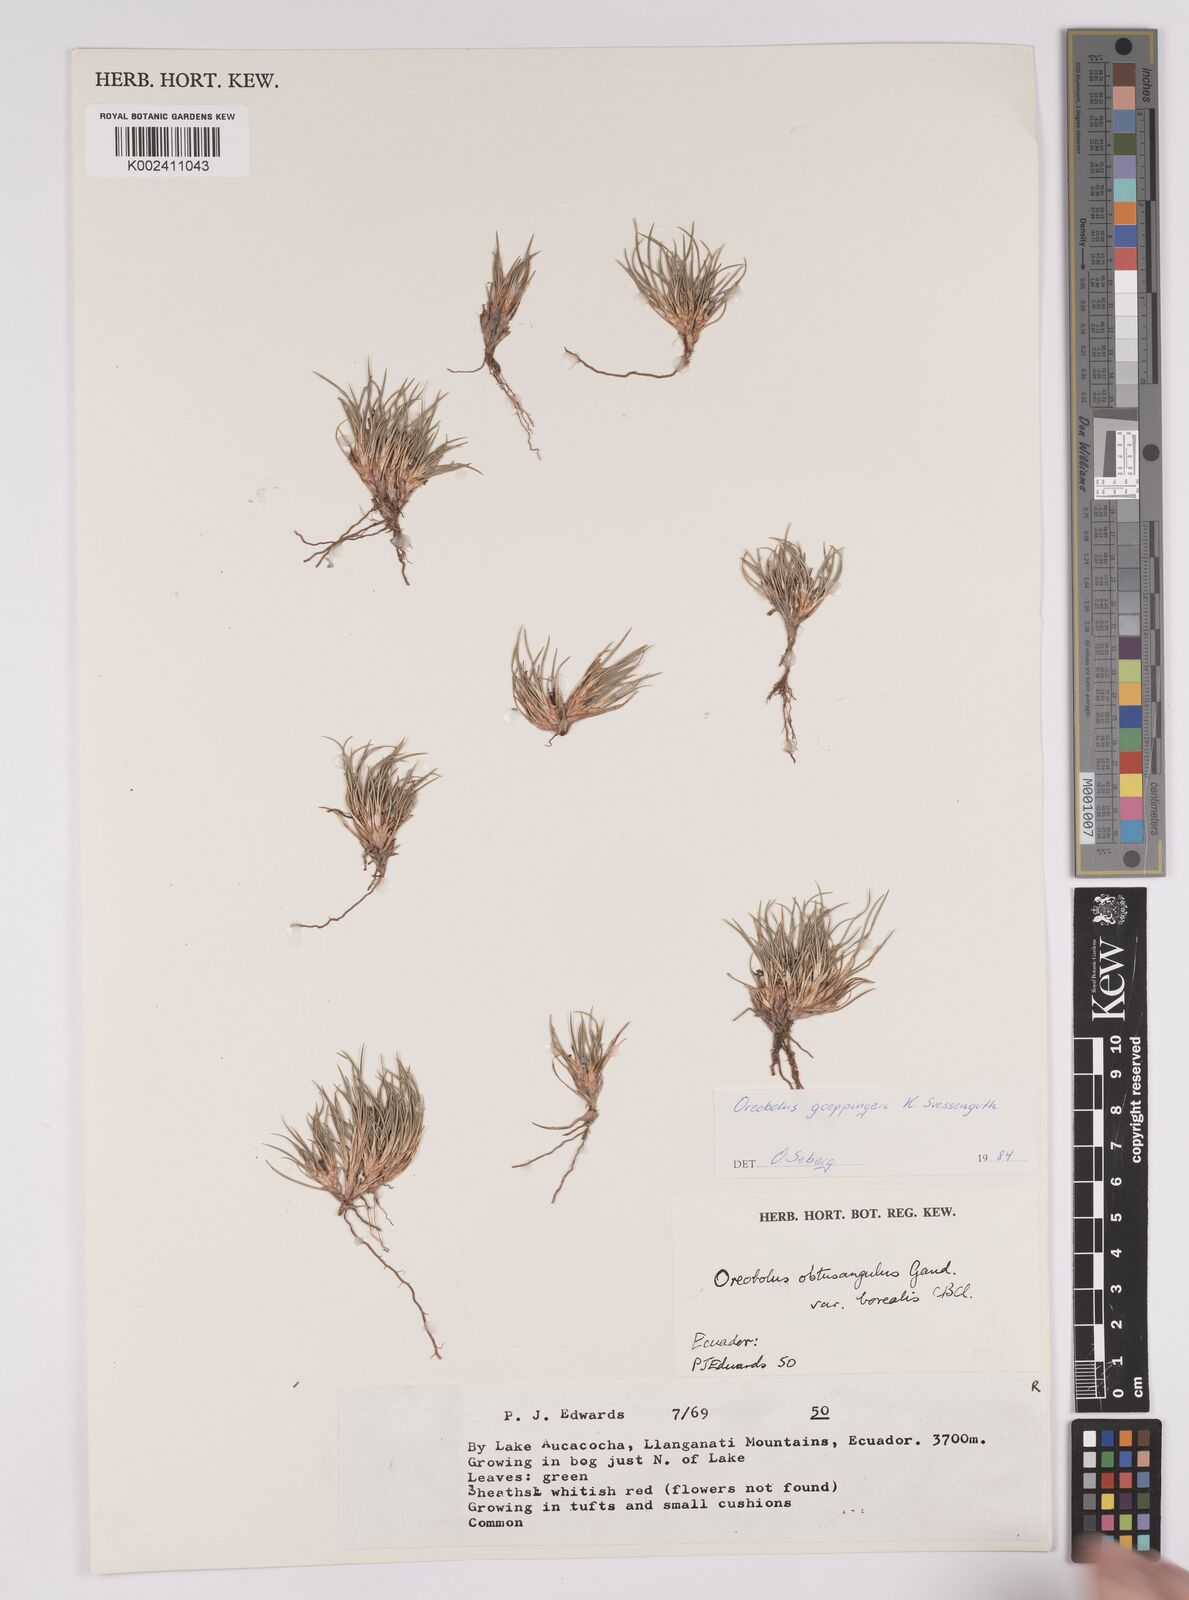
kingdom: Plantae
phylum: Tracheophyta
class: Liliopsida
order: Poales
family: Cyperaceae
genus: Oreobolus
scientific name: Oreobolus goeppingeri
